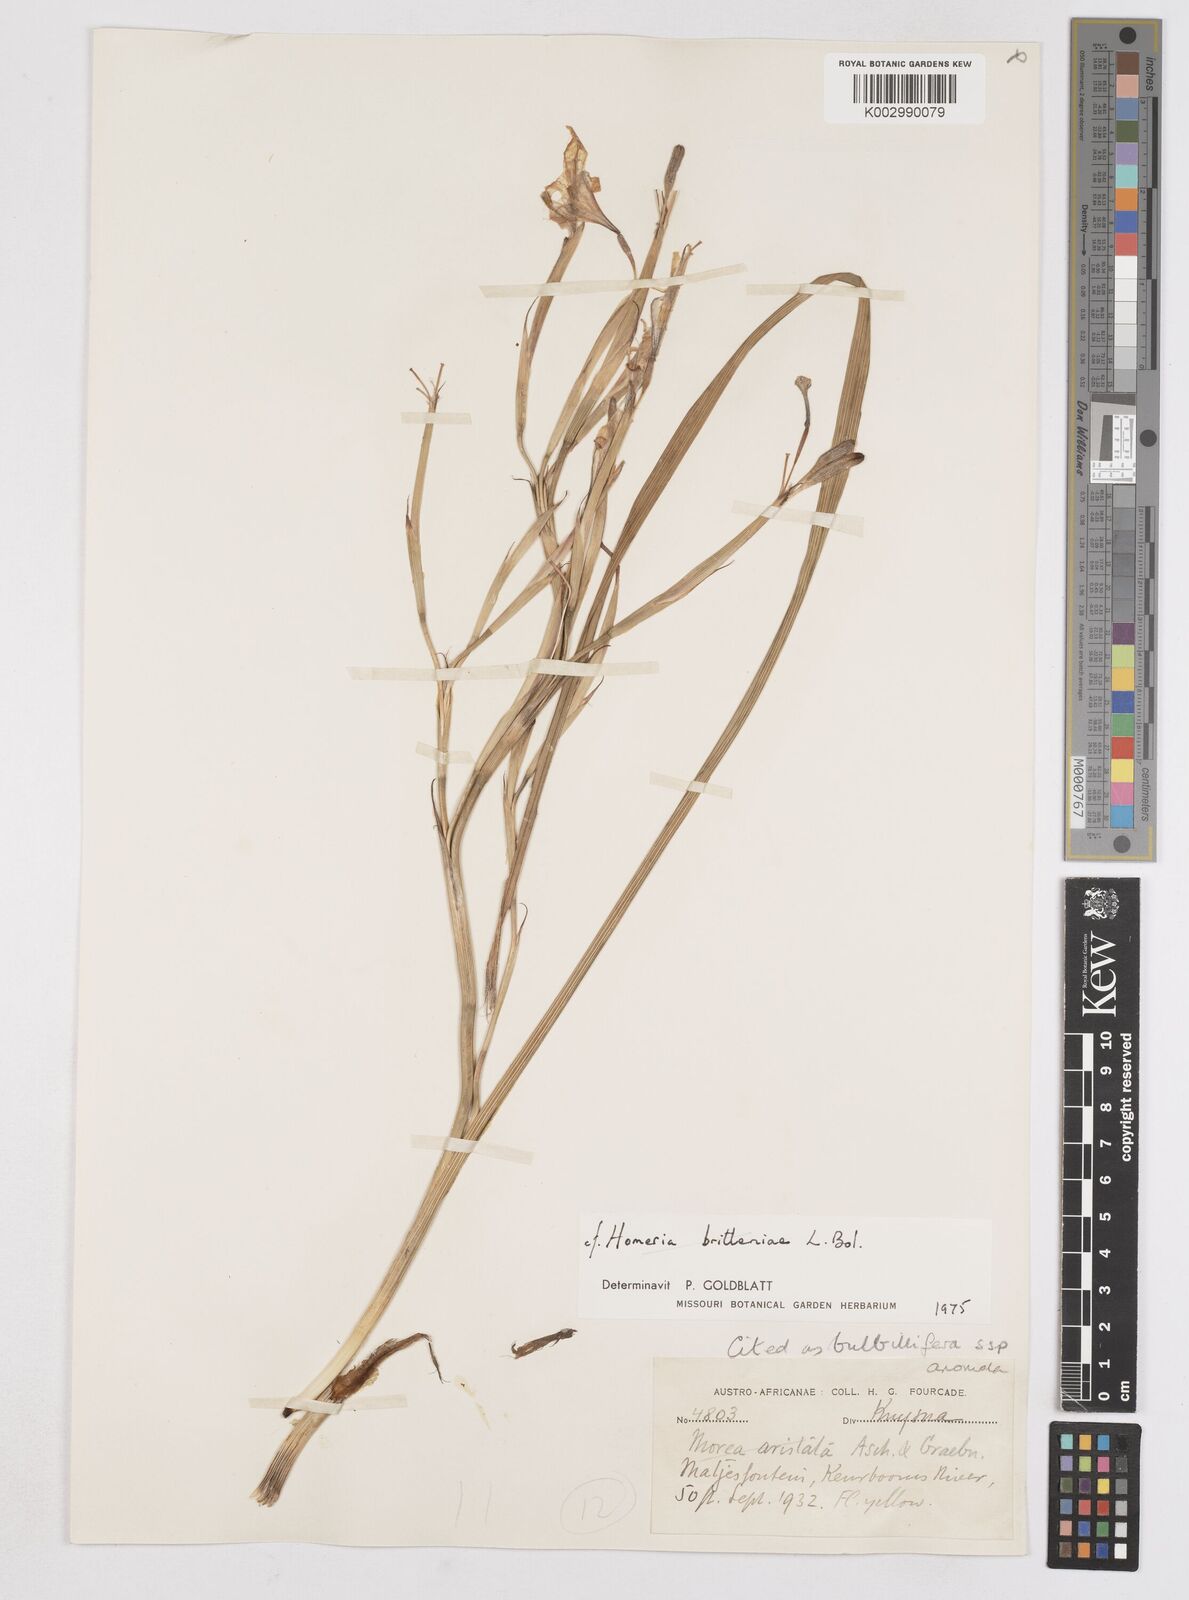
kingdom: Plantae
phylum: Tracheophyta
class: Liliopsida
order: Asparagales
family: Iridaceae
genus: Moraea
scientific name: Moraea bulbillifera
